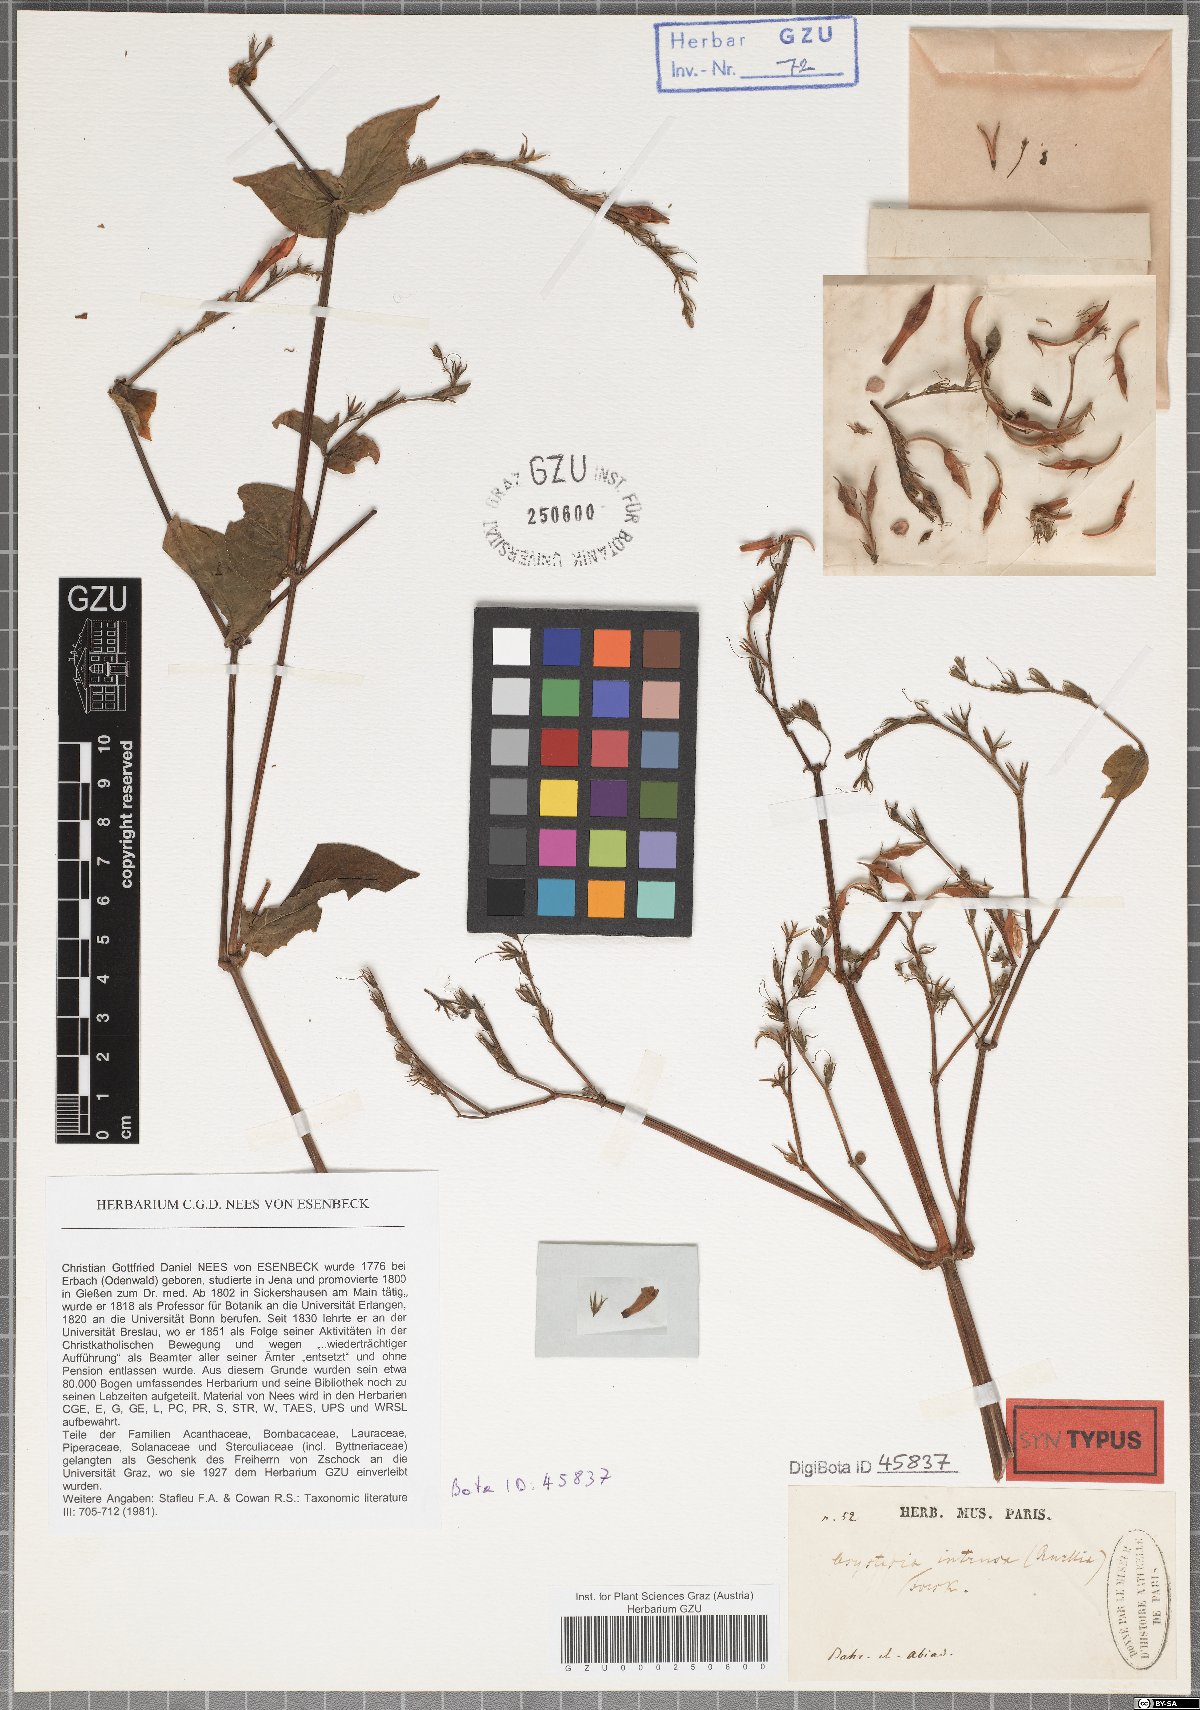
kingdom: Plantae
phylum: Tracheophyta
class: Magnoliopsida
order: Lamiales
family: Acanthaceae
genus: Asystasia
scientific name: Asystasia intrusa
